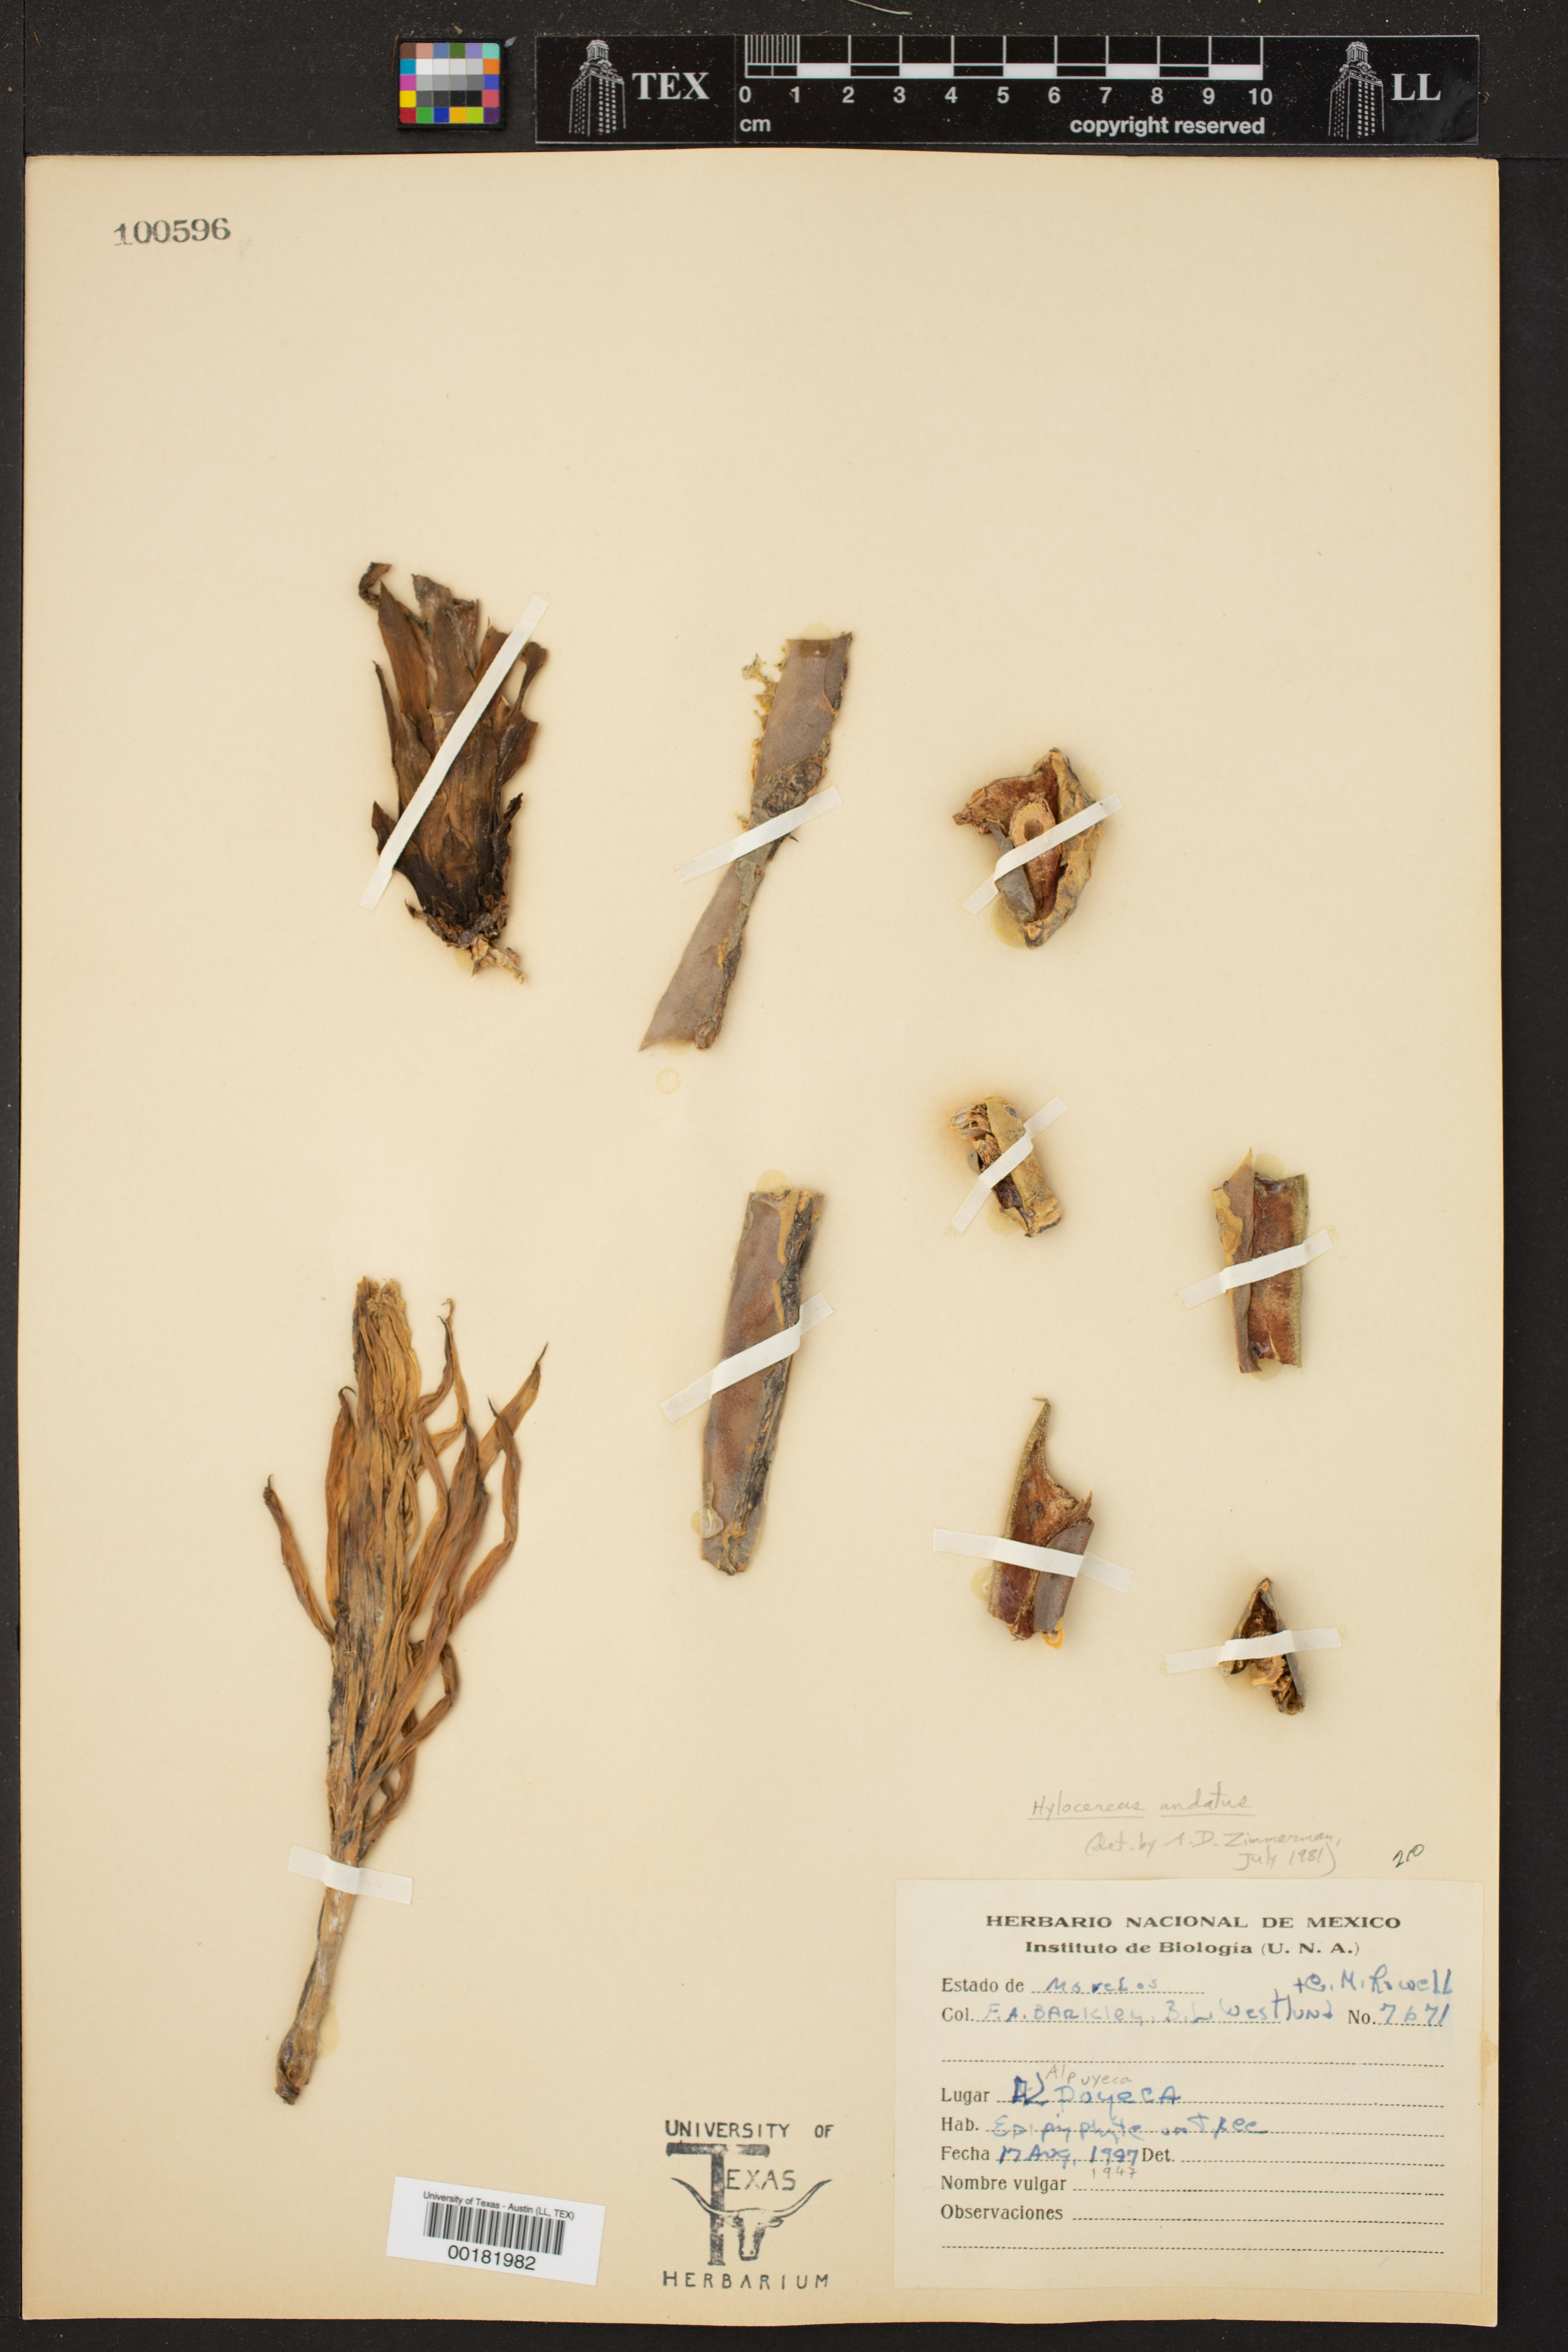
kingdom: Plantae
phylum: Tracheophyta
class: Magnoliopsida
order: Caryophyllales
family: Cactaceae
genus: Selenicereus
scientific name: Selenicereus undatus
